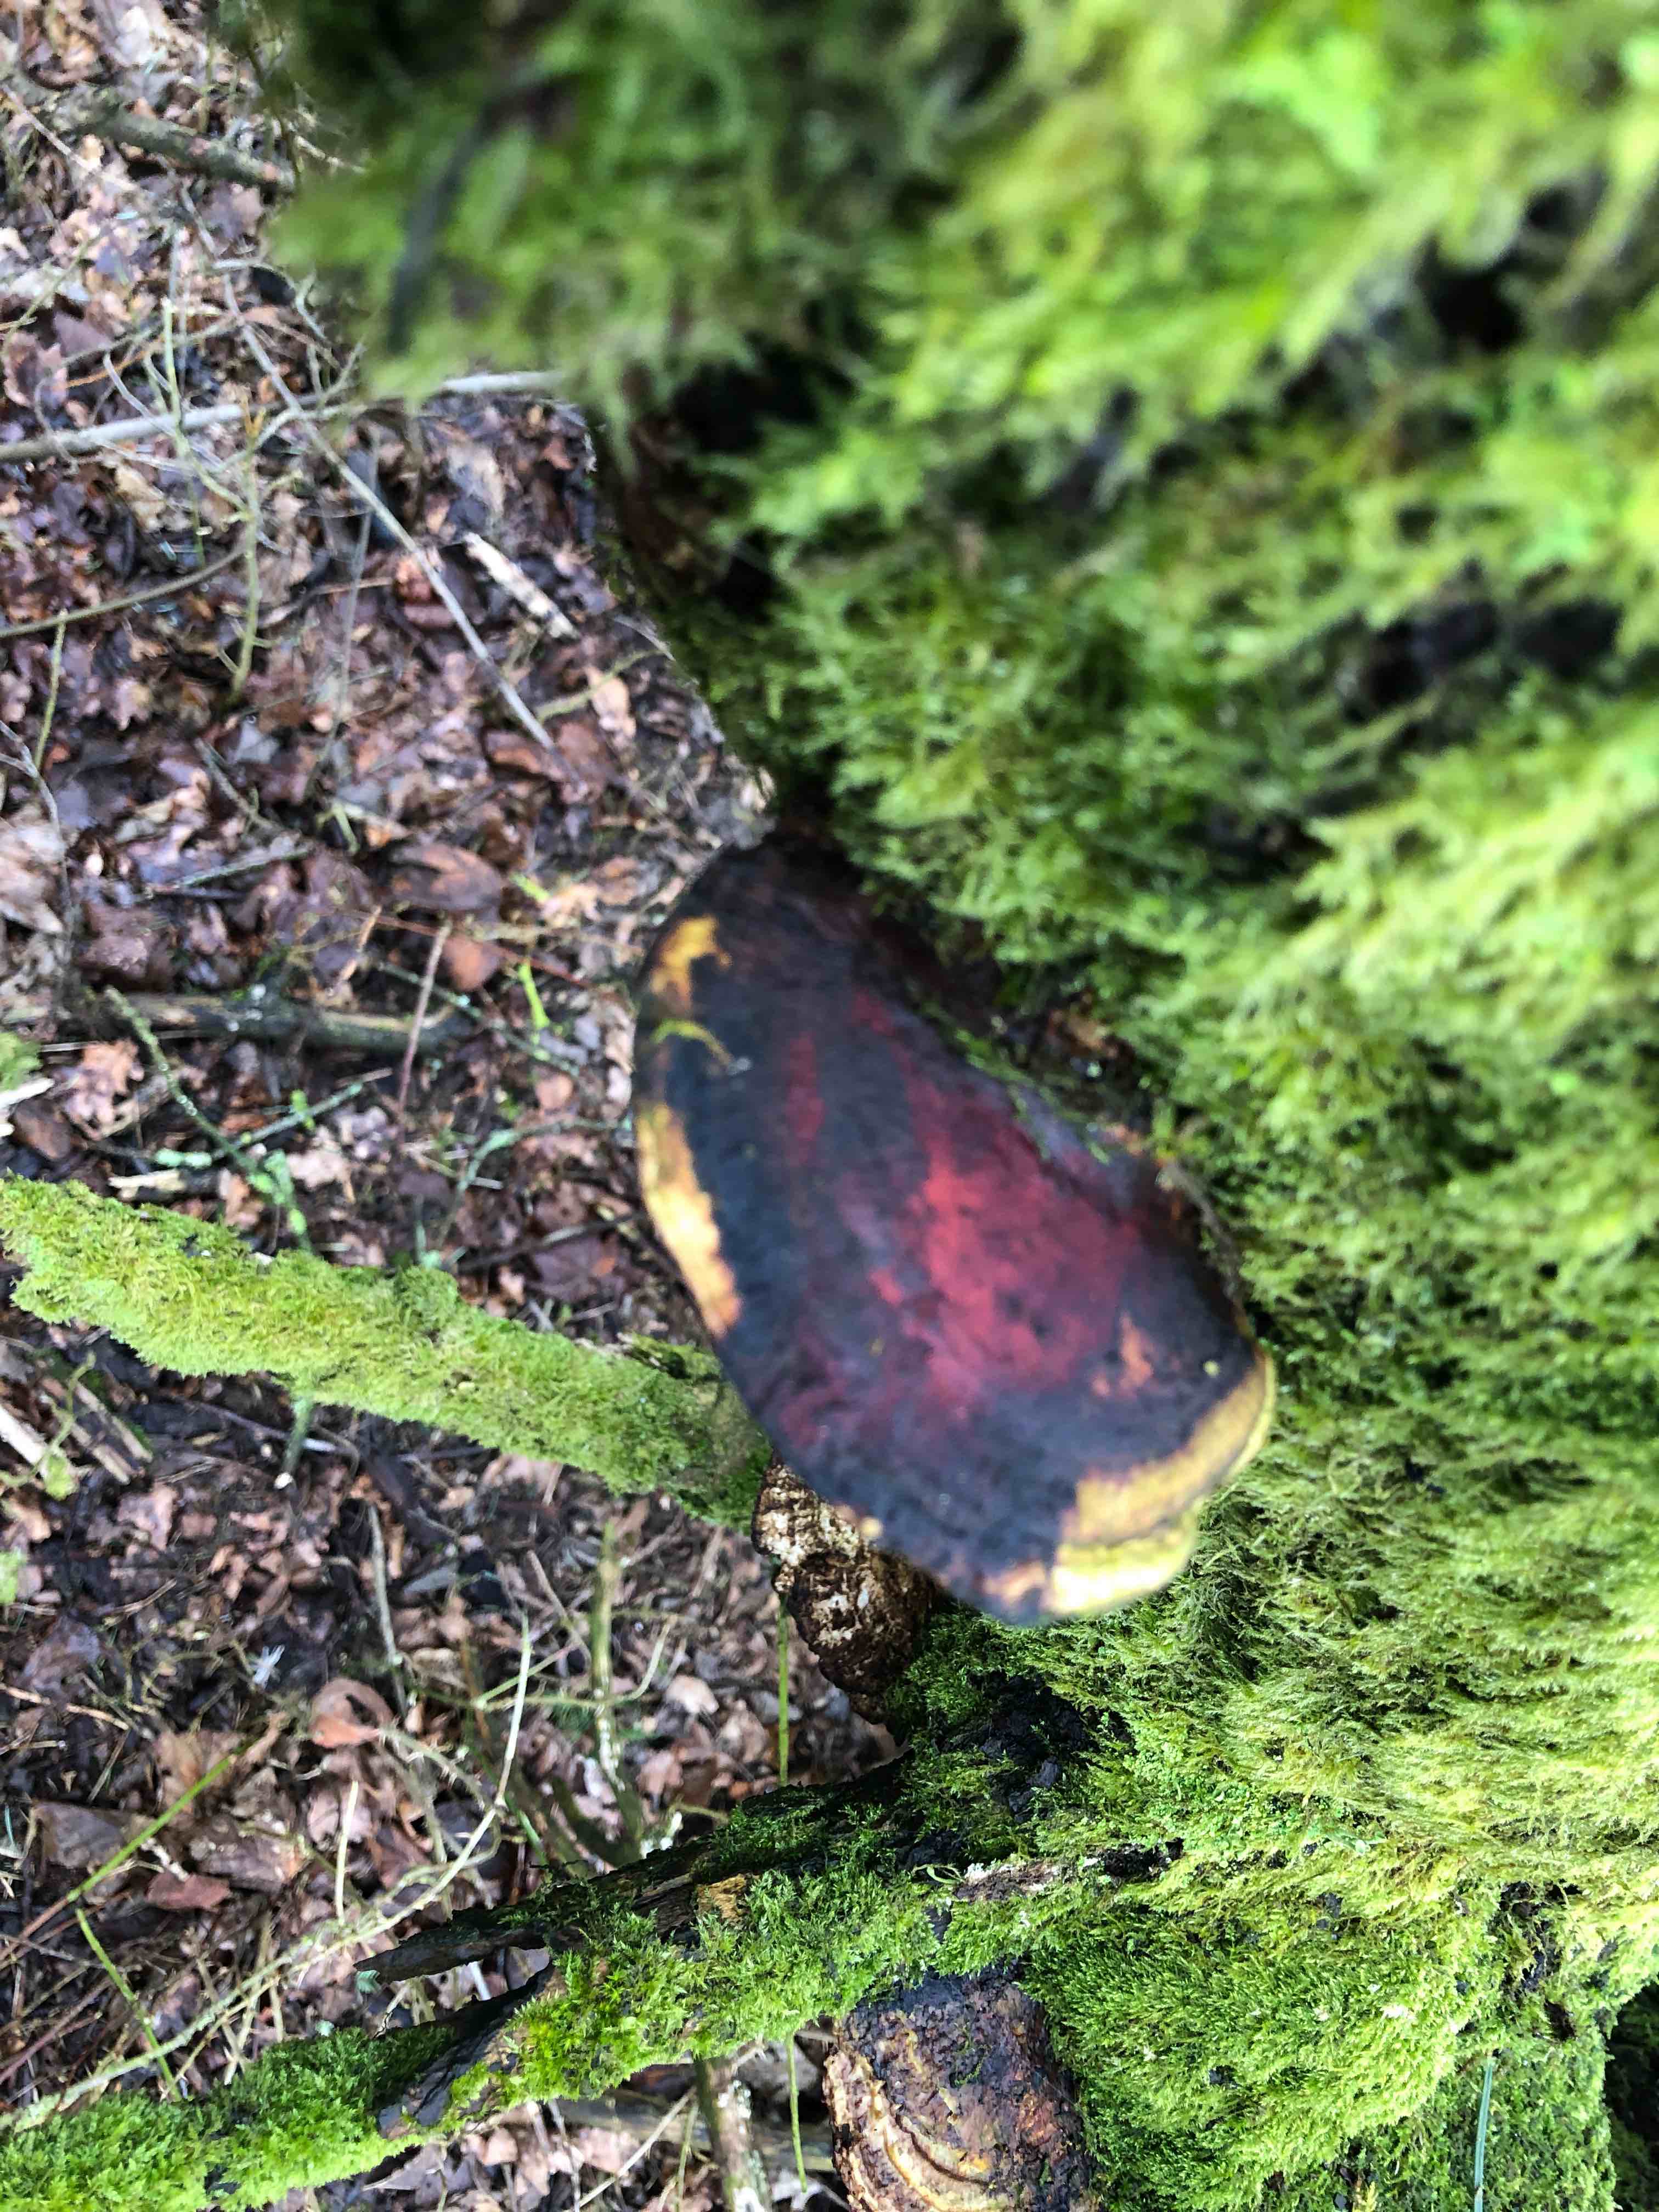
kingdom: Fungi
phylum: Basidiomycota
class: Agaricomycetes
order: Polyporales
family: Polyporaceae
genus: Daedaleopsis
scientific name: Daedaleopsis confragosa
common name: rødmende læderporesvamp
